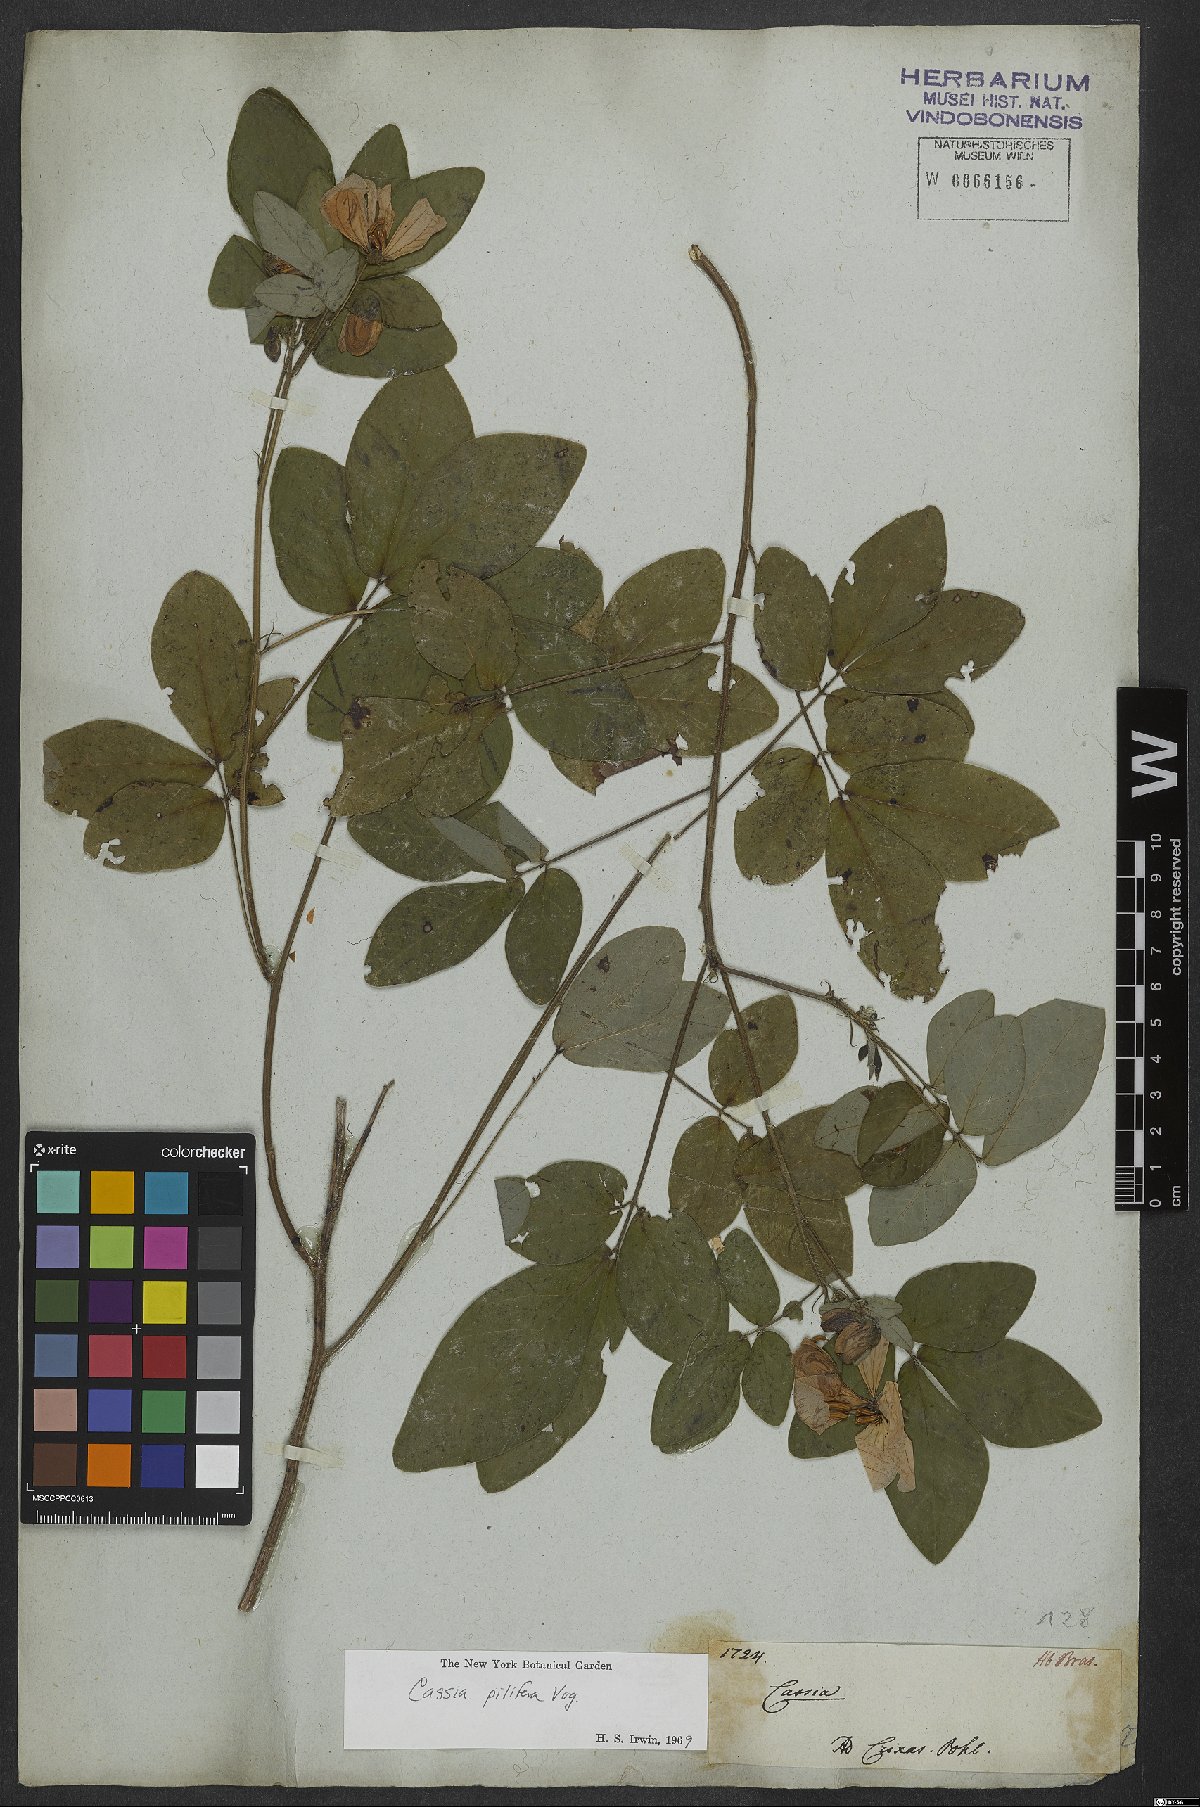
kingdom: Plantae
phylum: Tracheophyta
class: Magnoliopsida
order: Fabales
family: Fabaceae
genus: Senna
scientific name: Senna pilifera
